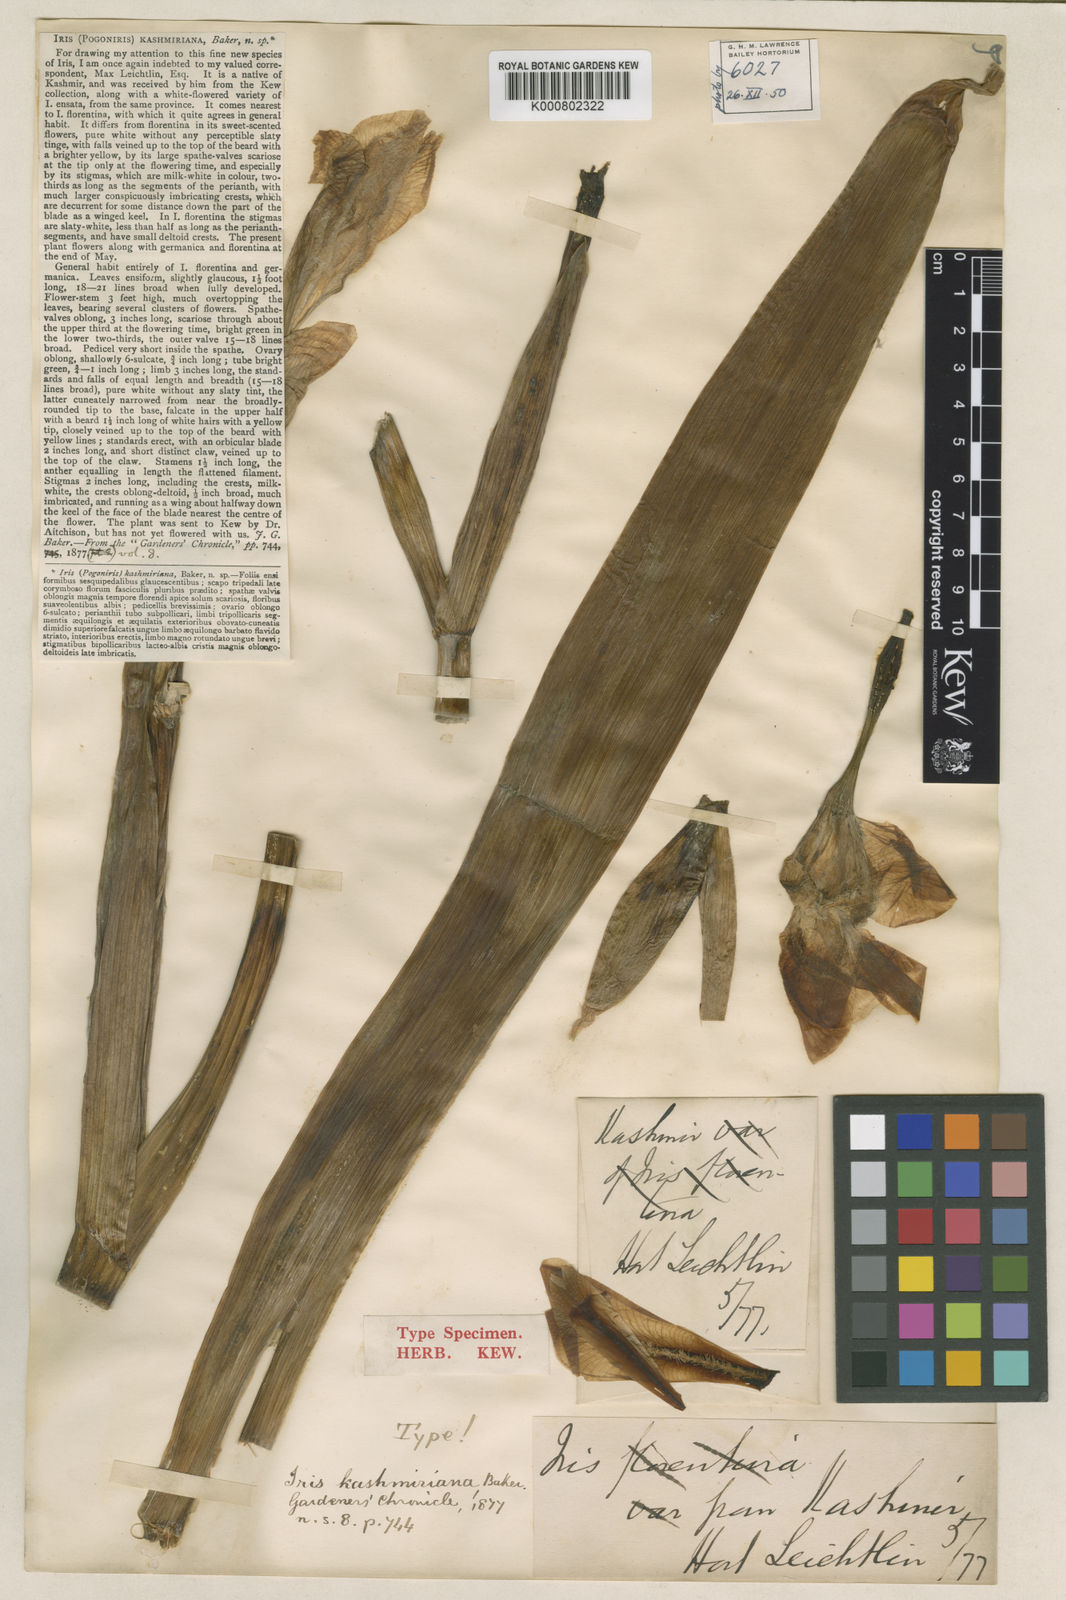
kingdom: Plantae
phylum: Tracheophyta
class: Liliopsida
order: Asparagales
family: Iridaceae
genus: Iris
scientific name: Iris kashmiriana
